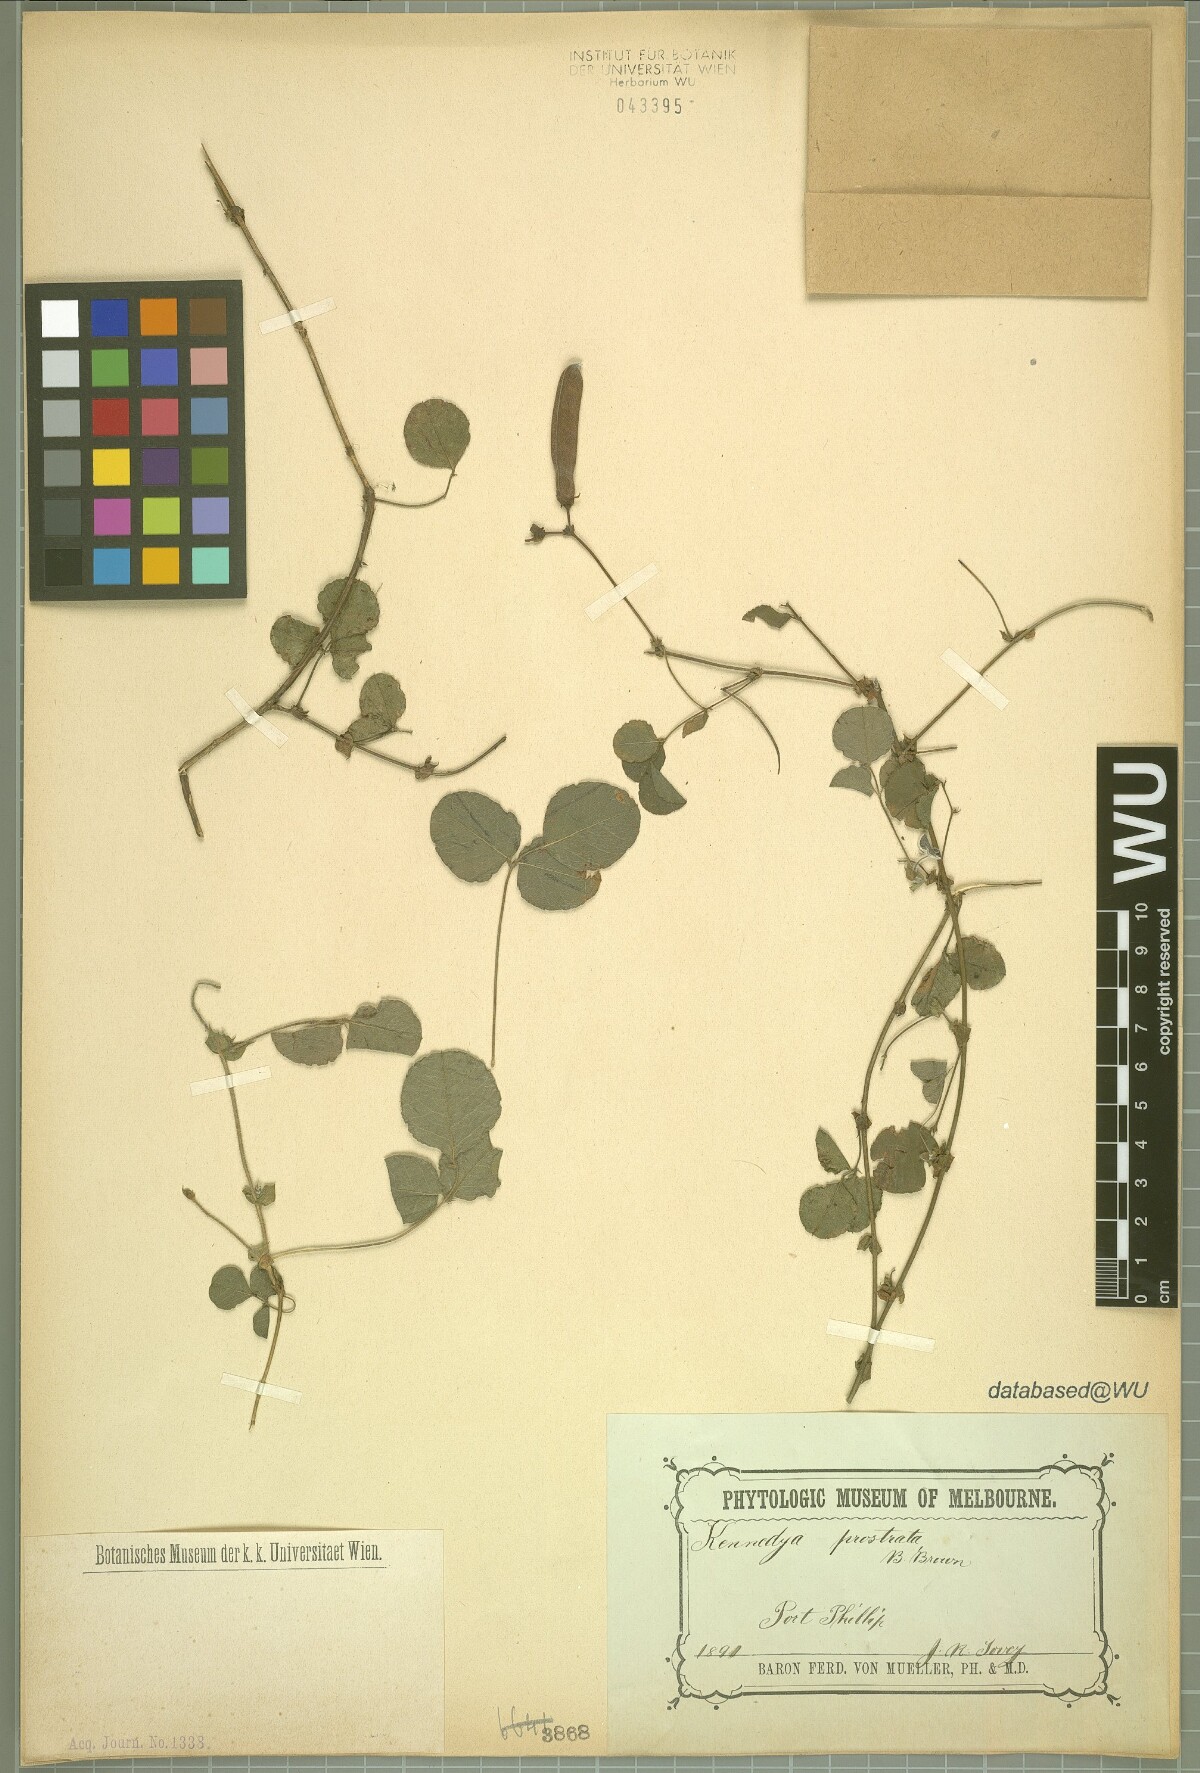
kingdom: Plantae
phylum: Tracheophyta
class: Magnoliopsida
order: Fabales
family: Fabaceae
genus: Kennedia
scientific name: Kennedia prostrata
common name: Running-postman
